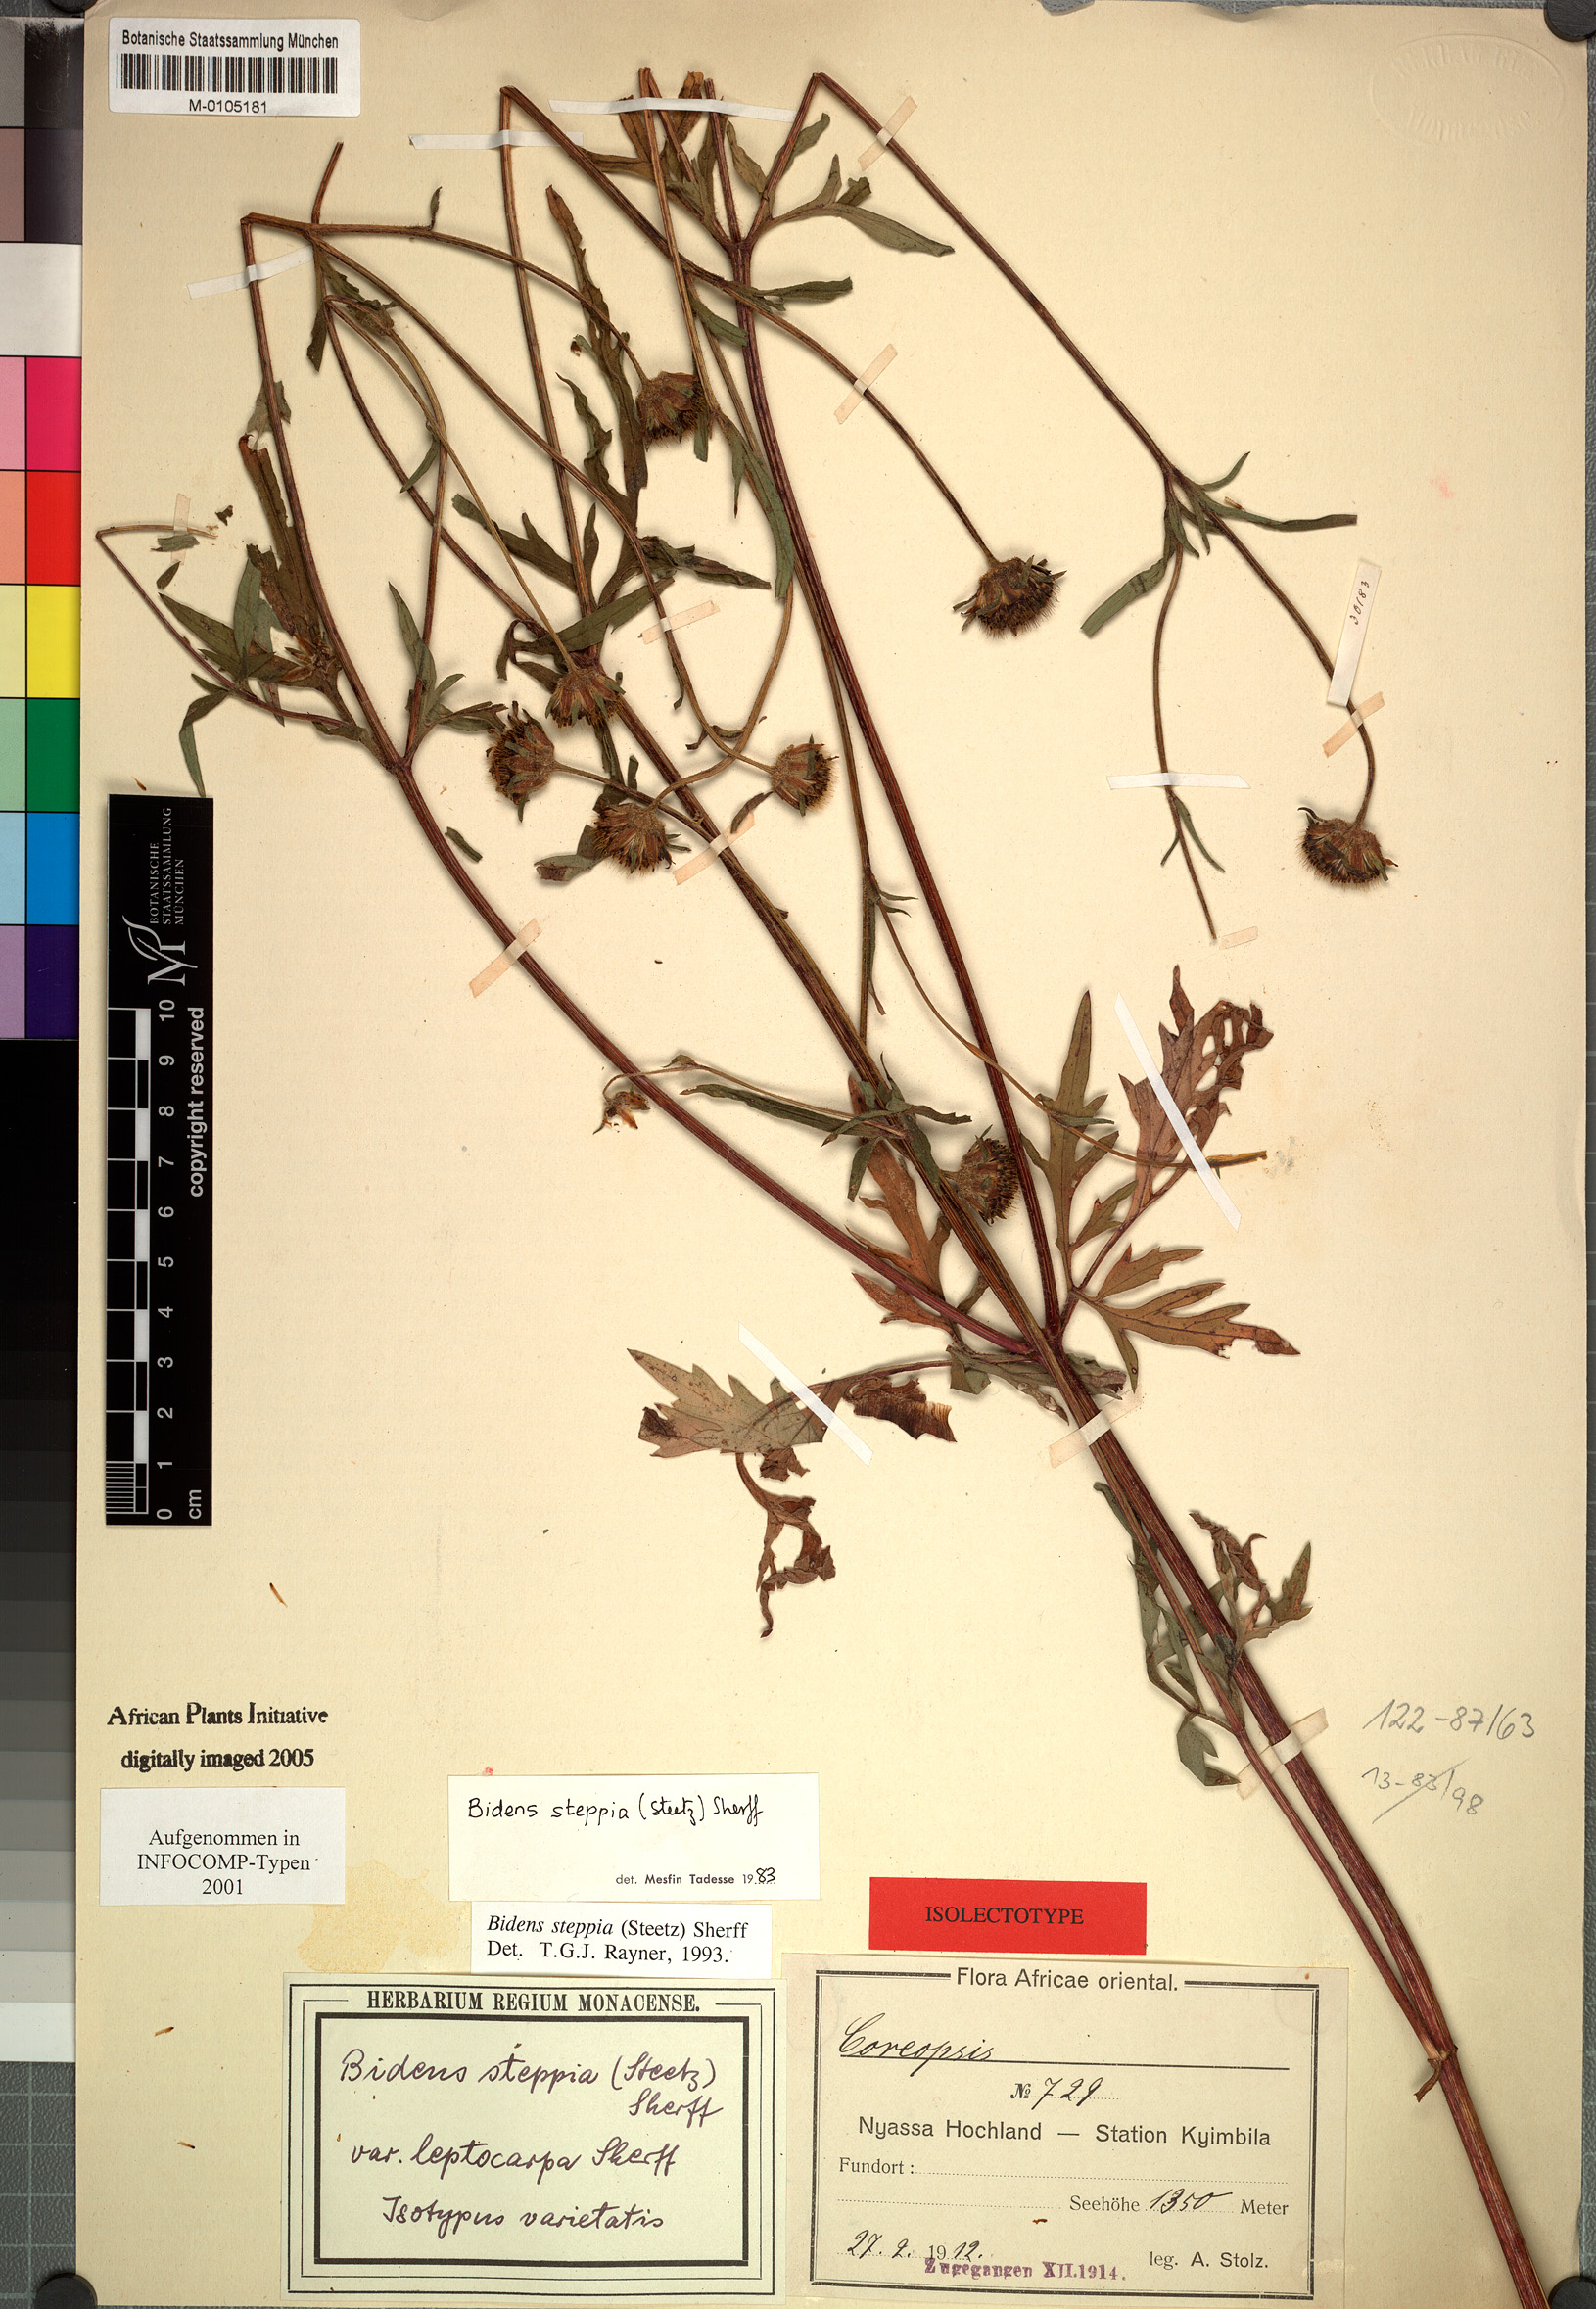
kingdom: Plantae
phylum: Tracheophyta
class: Magnoliopsida
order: Asterales
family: Asteraceae
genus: Bidens
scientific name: Bidens steppia
